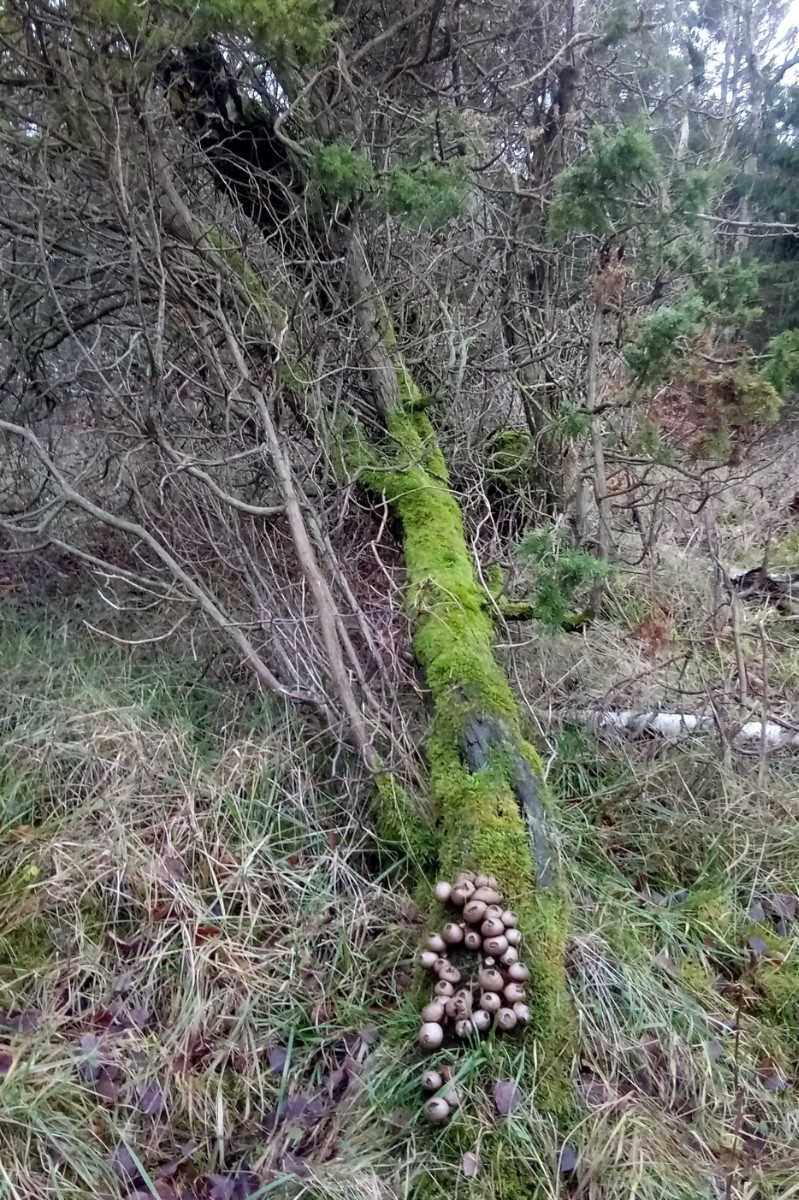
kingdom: Fungi
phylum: Basidiomycota
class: Agaricomycetes
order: Agaricales
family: Lycoperdaceae
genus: Apioperdon
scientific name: Apioperdon pyriforme
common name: pære-støvbold
